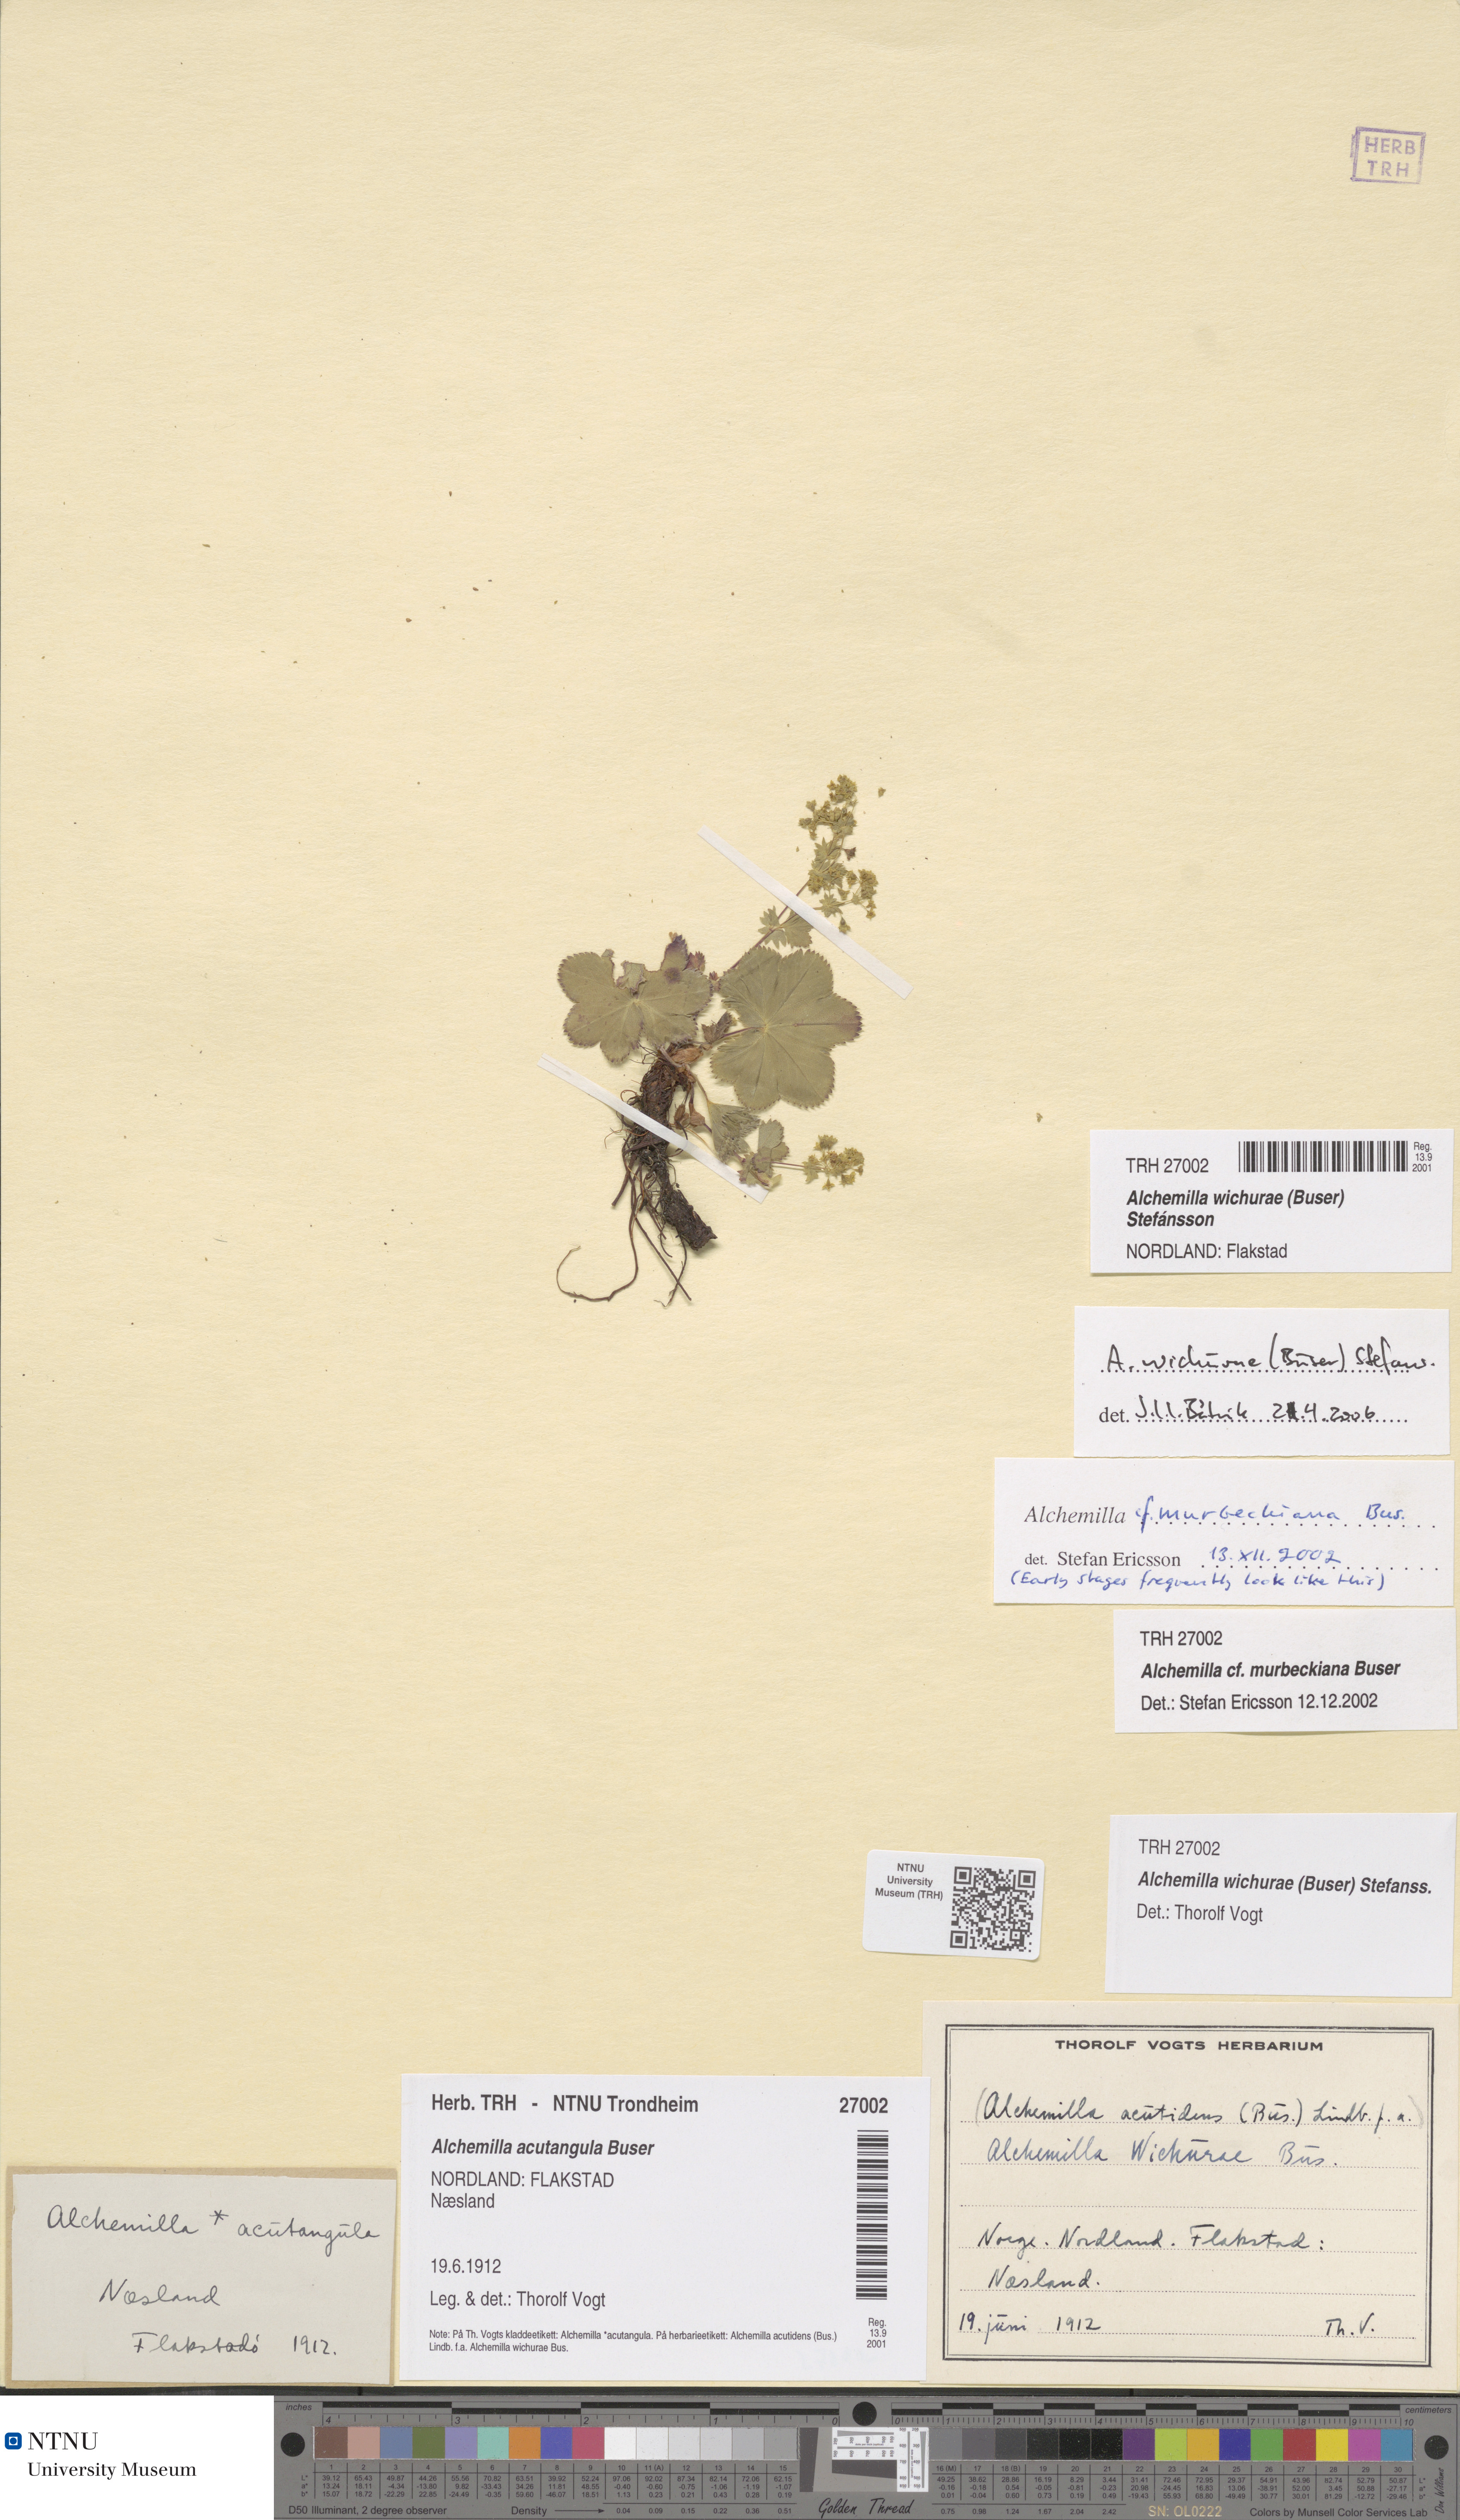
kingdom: Plantae
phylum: Tracheophyta
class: Magnoliopsida
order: Rosales
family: Rosaceae
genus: Alchemilla
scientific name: Alchemilla wichurae
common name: Rock lady's mantle
